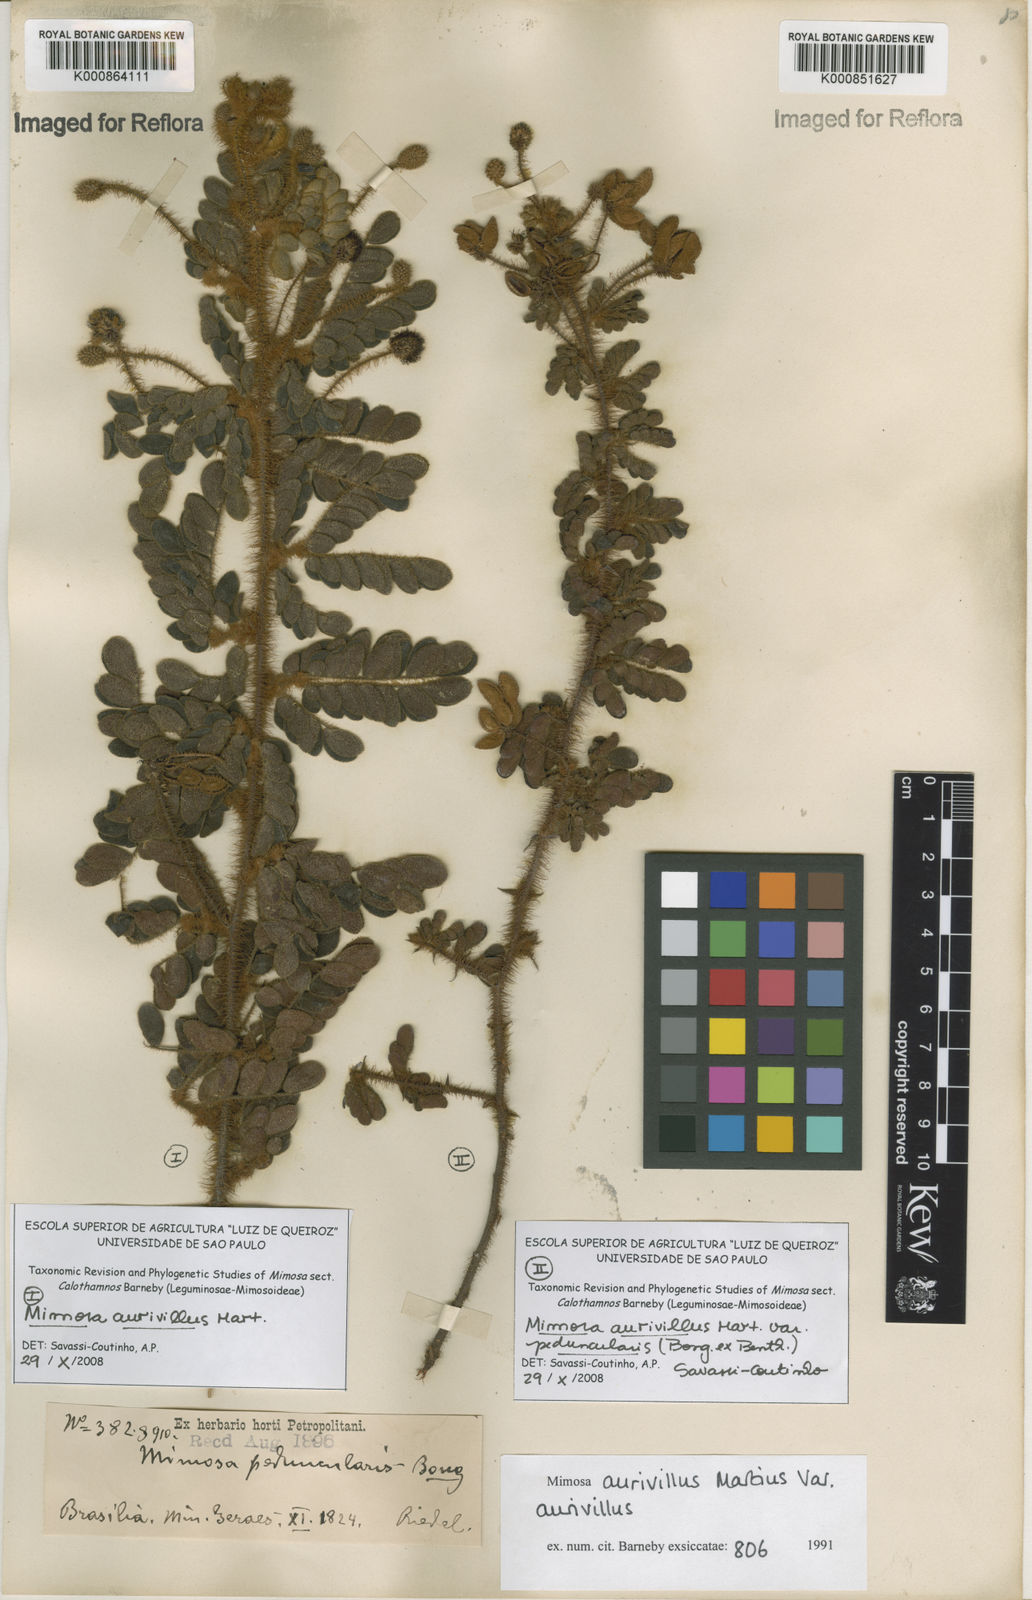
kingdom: Plantae
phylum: Tracheophyta
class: Magnoliopsida
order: Fabales
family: Fabaceae
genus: Mimosa
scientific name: Mimosa aurivillus
